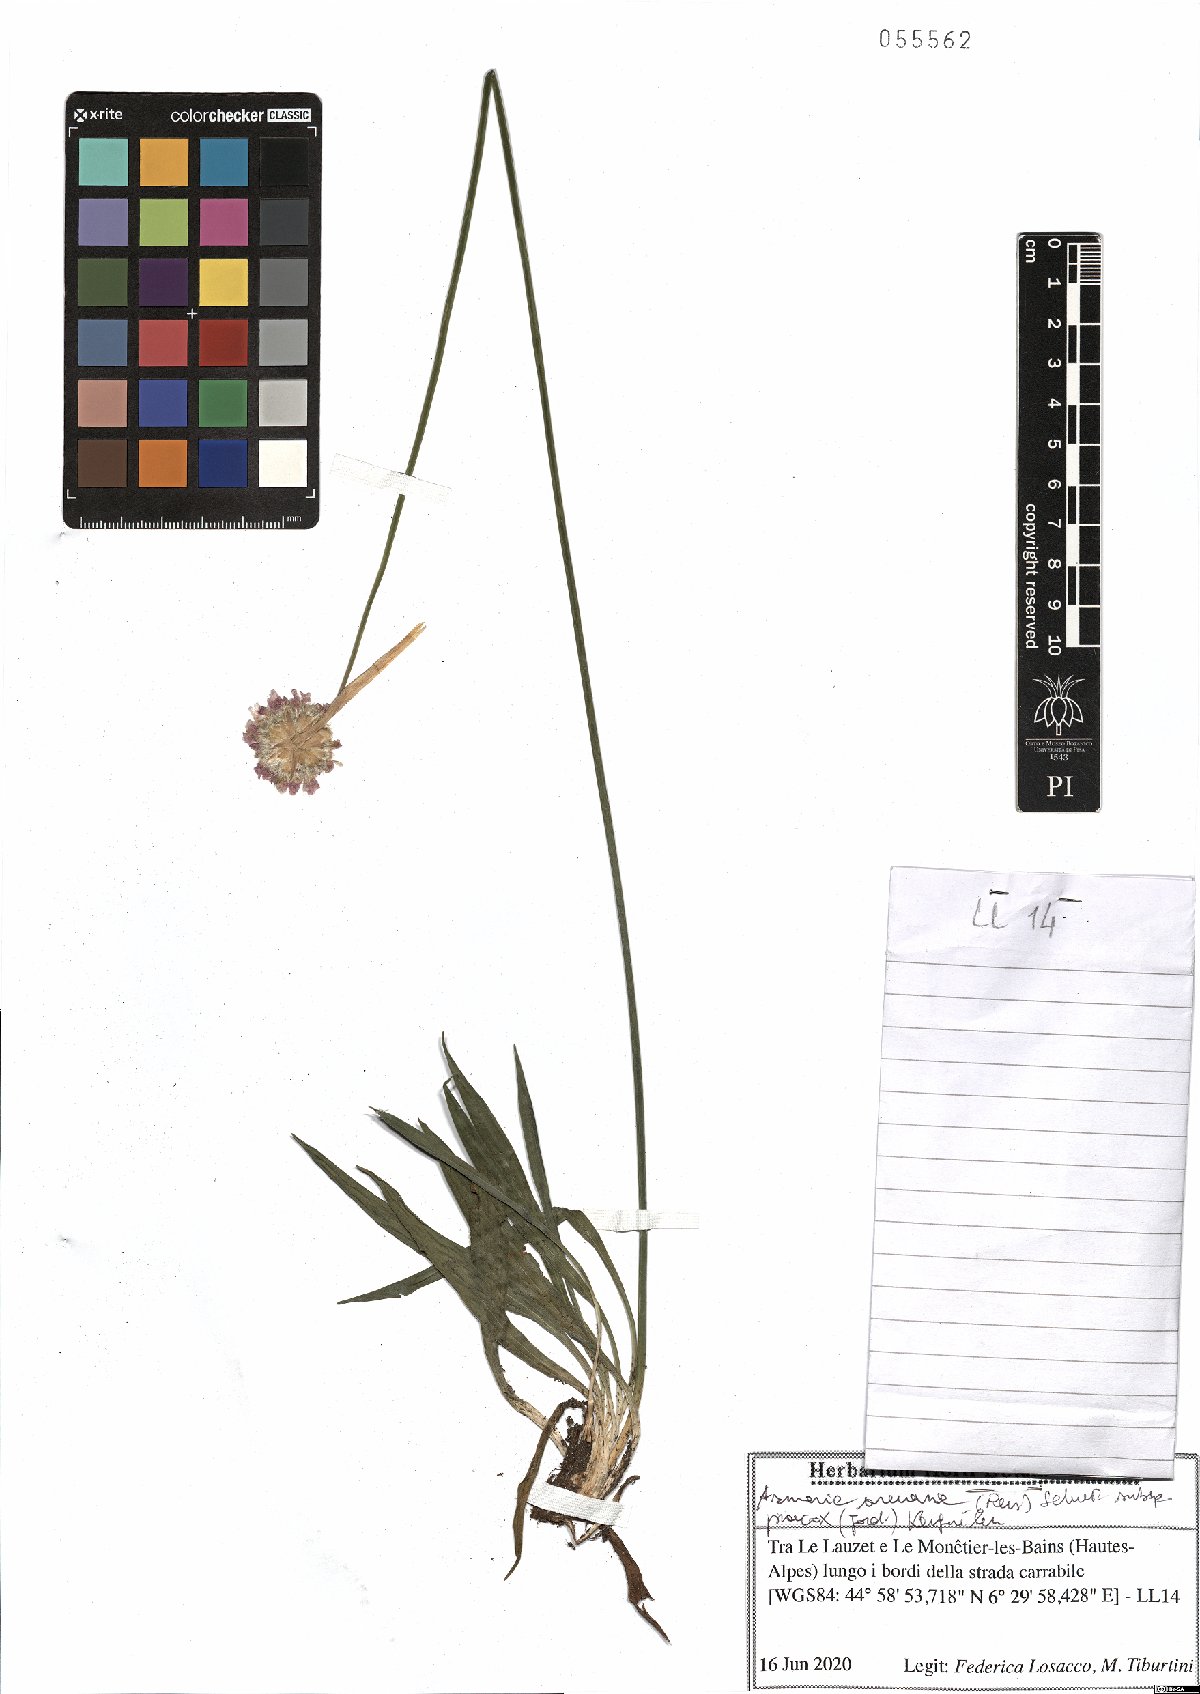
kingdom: Plantae
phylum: Tracheophyta
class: Magnoliopsida
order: Caryophyllales
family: Plumbaginaceae
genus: Armeria
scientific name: Armeria arenaria
